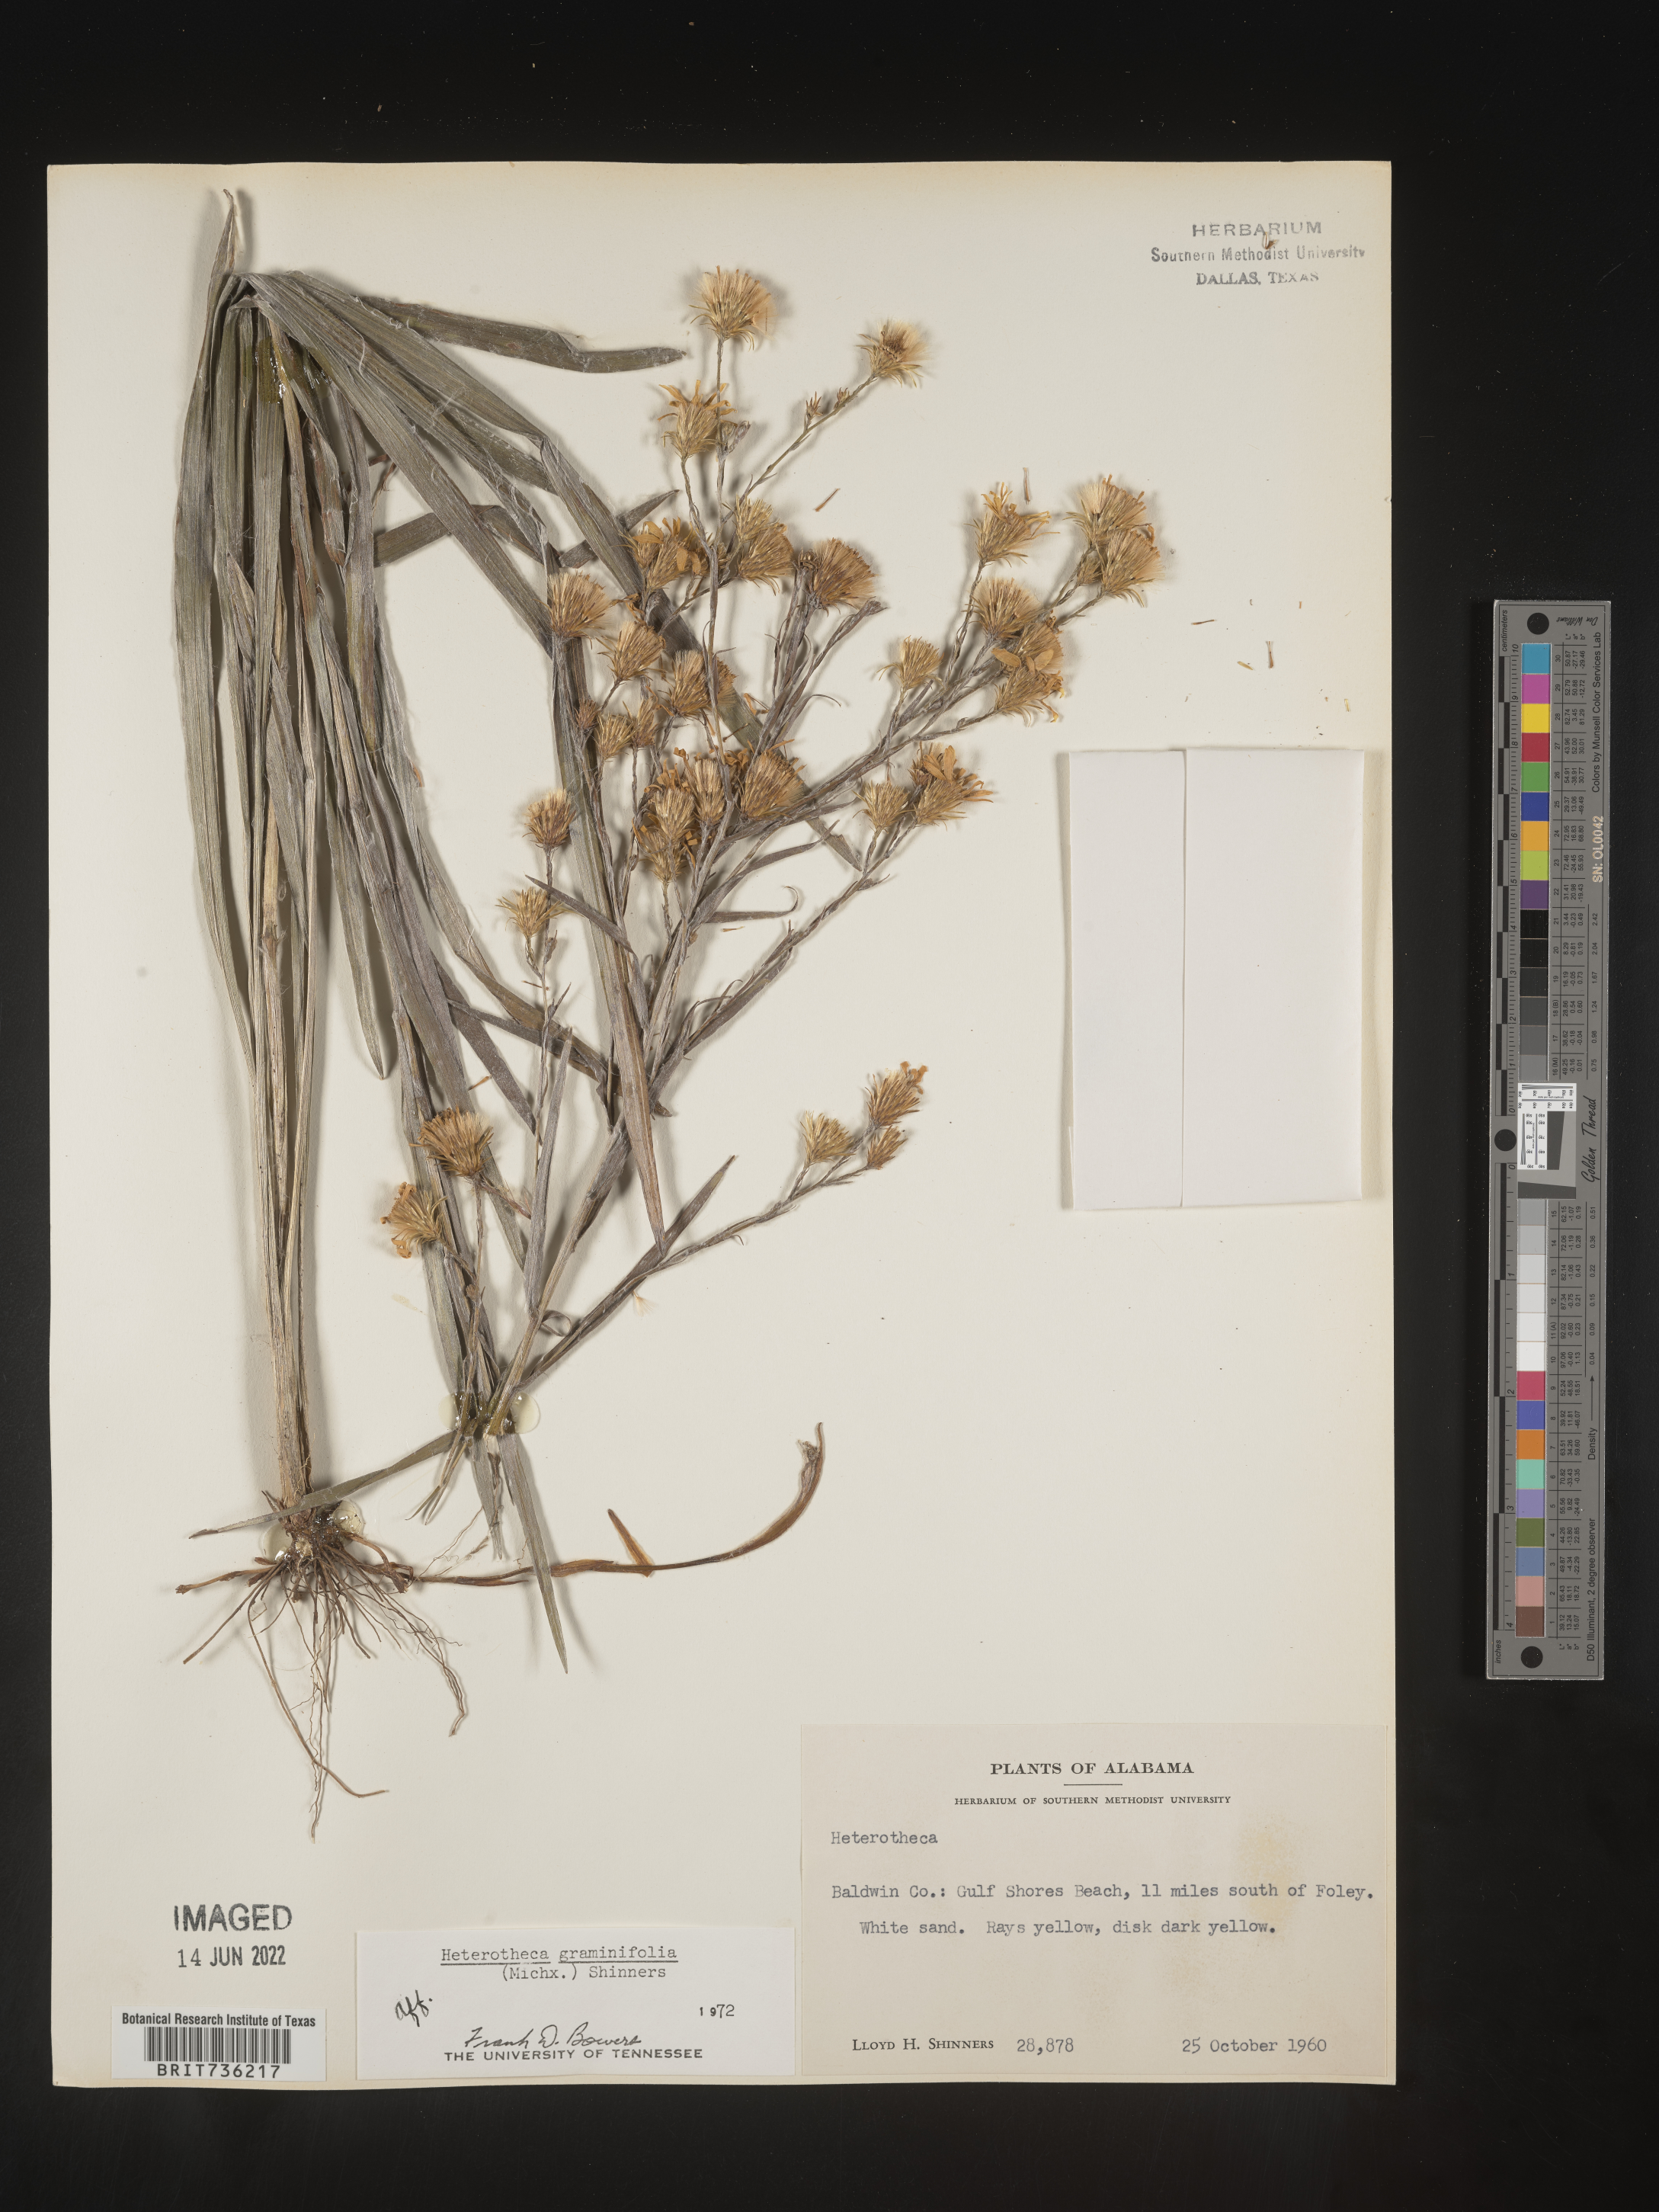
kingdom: Plantae
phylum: Tracheophyta
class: Magnoliopsida
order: Asterales
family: Asteraceae
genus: Pityopsis
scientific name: Pityopsis graminifolia
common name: Grass-leaf golden-aster
